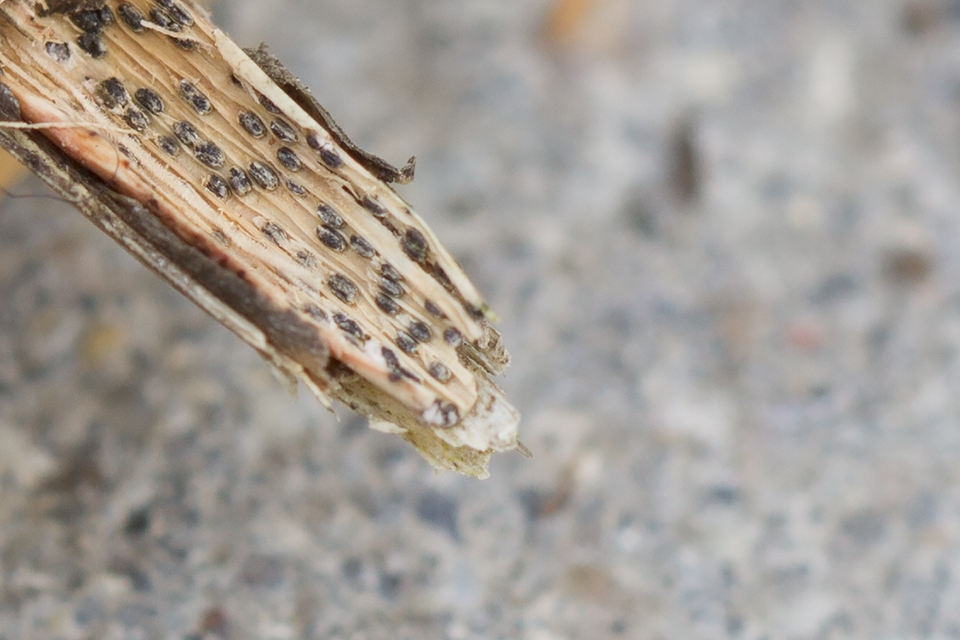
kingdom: Fungi
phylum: Ascomycota
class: Dothideomycetes
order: Pleosporales
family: Didymosphaeriaceae
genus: Montagnula
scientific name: Montagnula perforans
